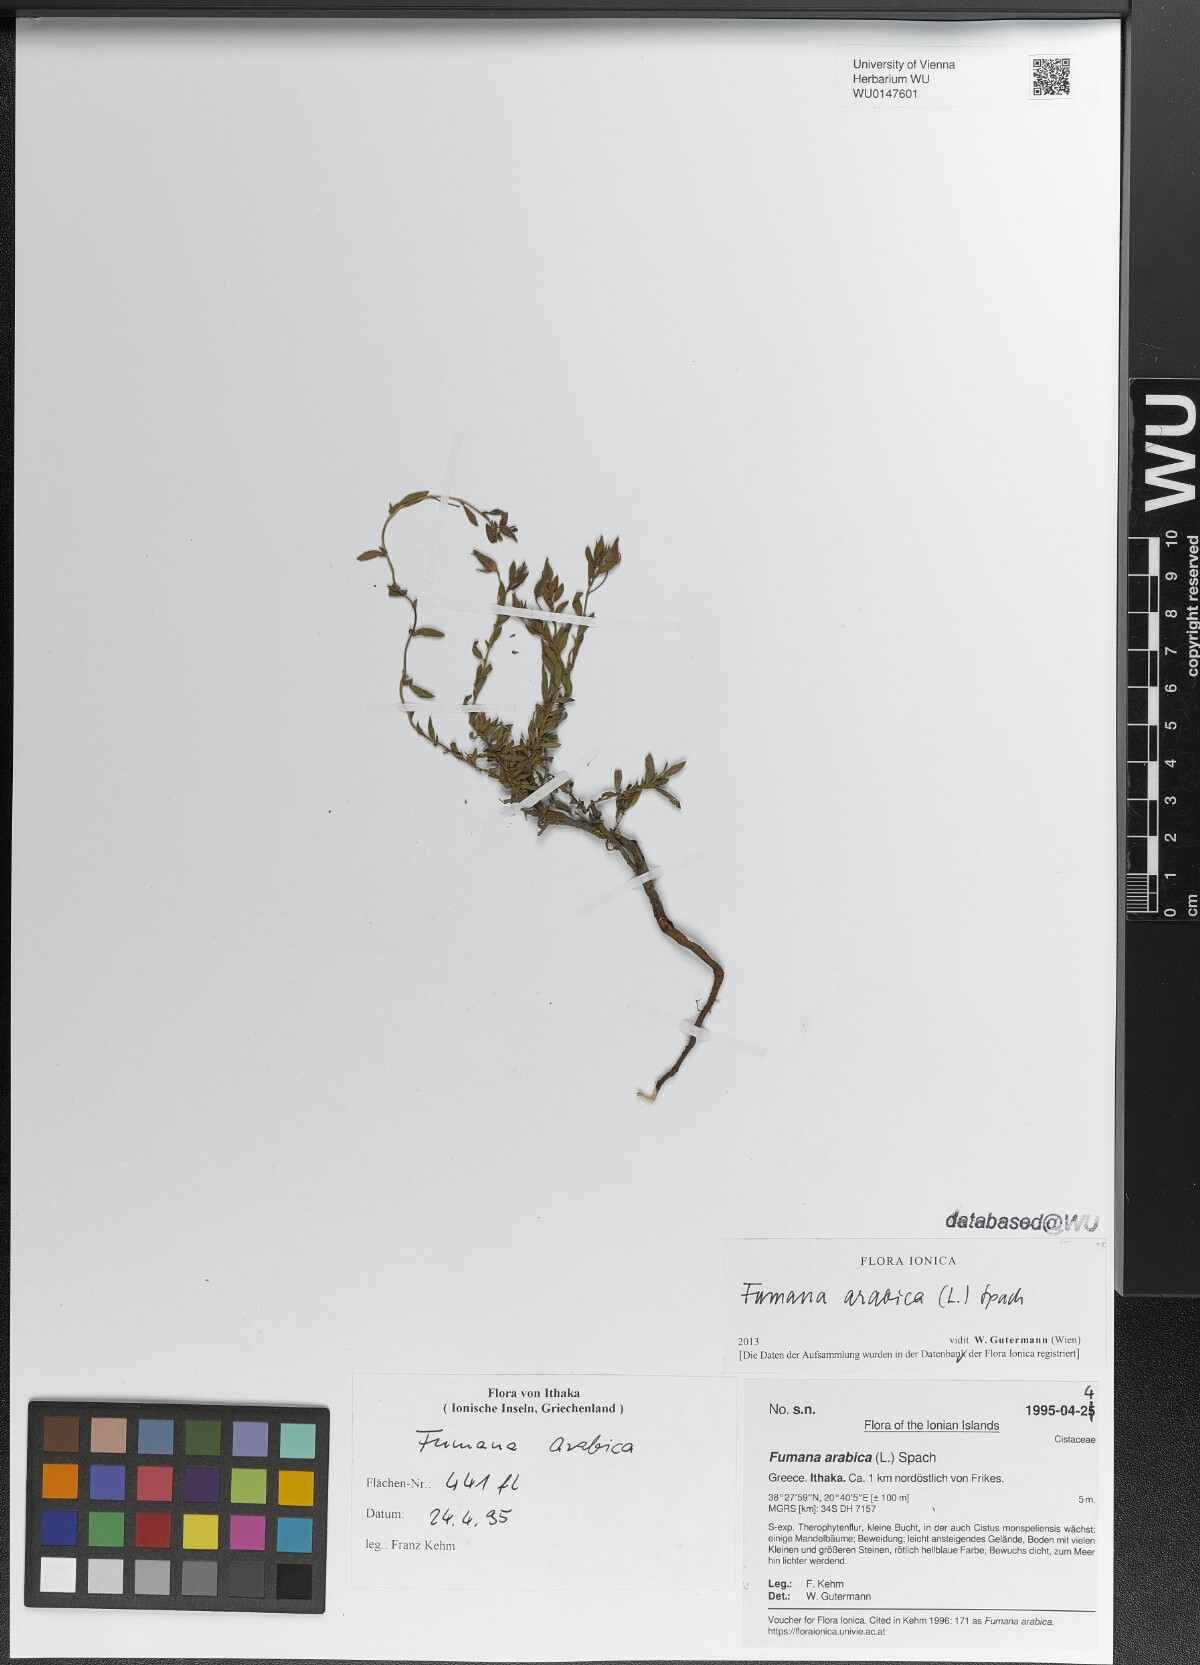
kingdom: Plantae
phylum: Tracheophyta
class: Magnoliopsida
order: Malvales
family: Cistaceae
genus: Fumana
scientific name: Fumana arabica
